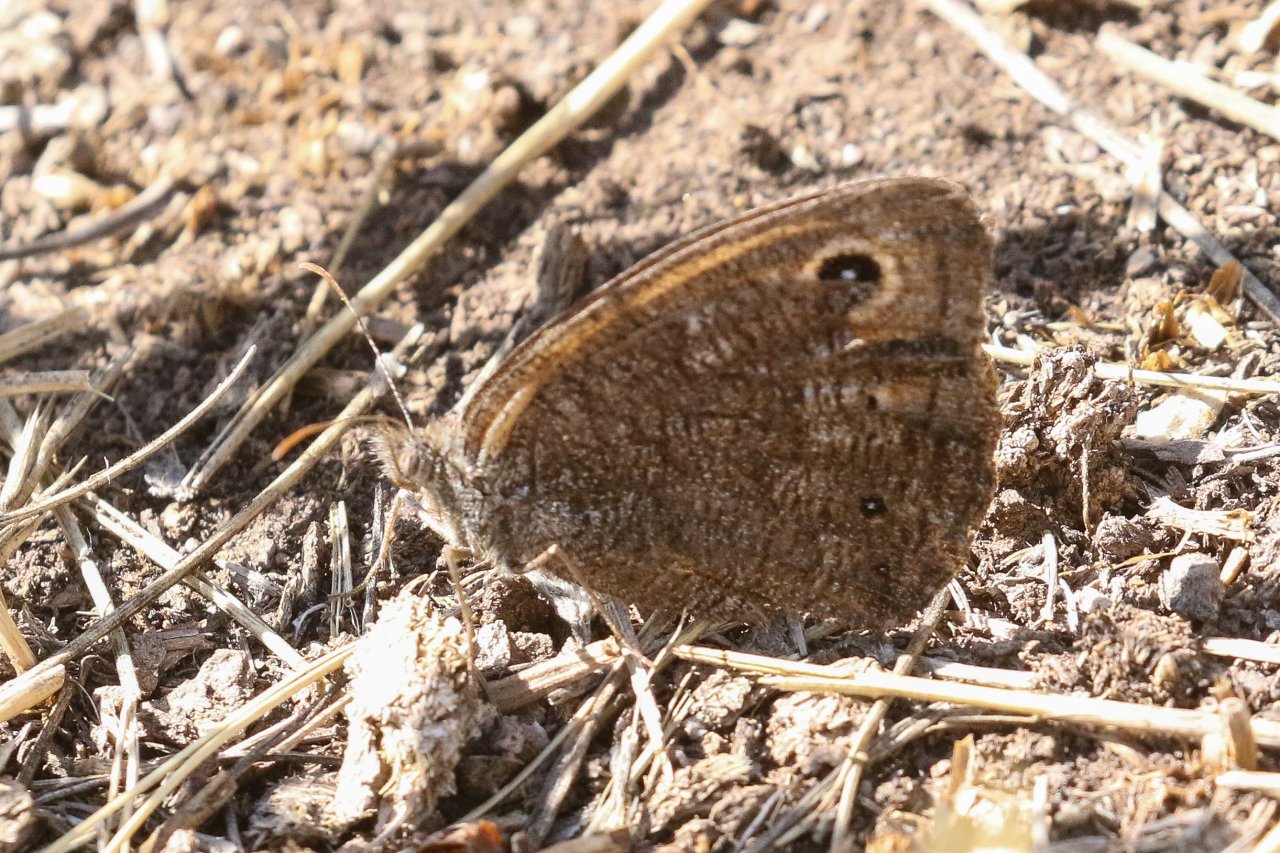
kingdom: Animalia
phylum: Arthropoda
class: Insecta
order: Lepidoptera
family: Nymphalidae
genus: Cercyonis
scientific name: Cercyonis meadi
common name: Mead's Wood-Nymph
